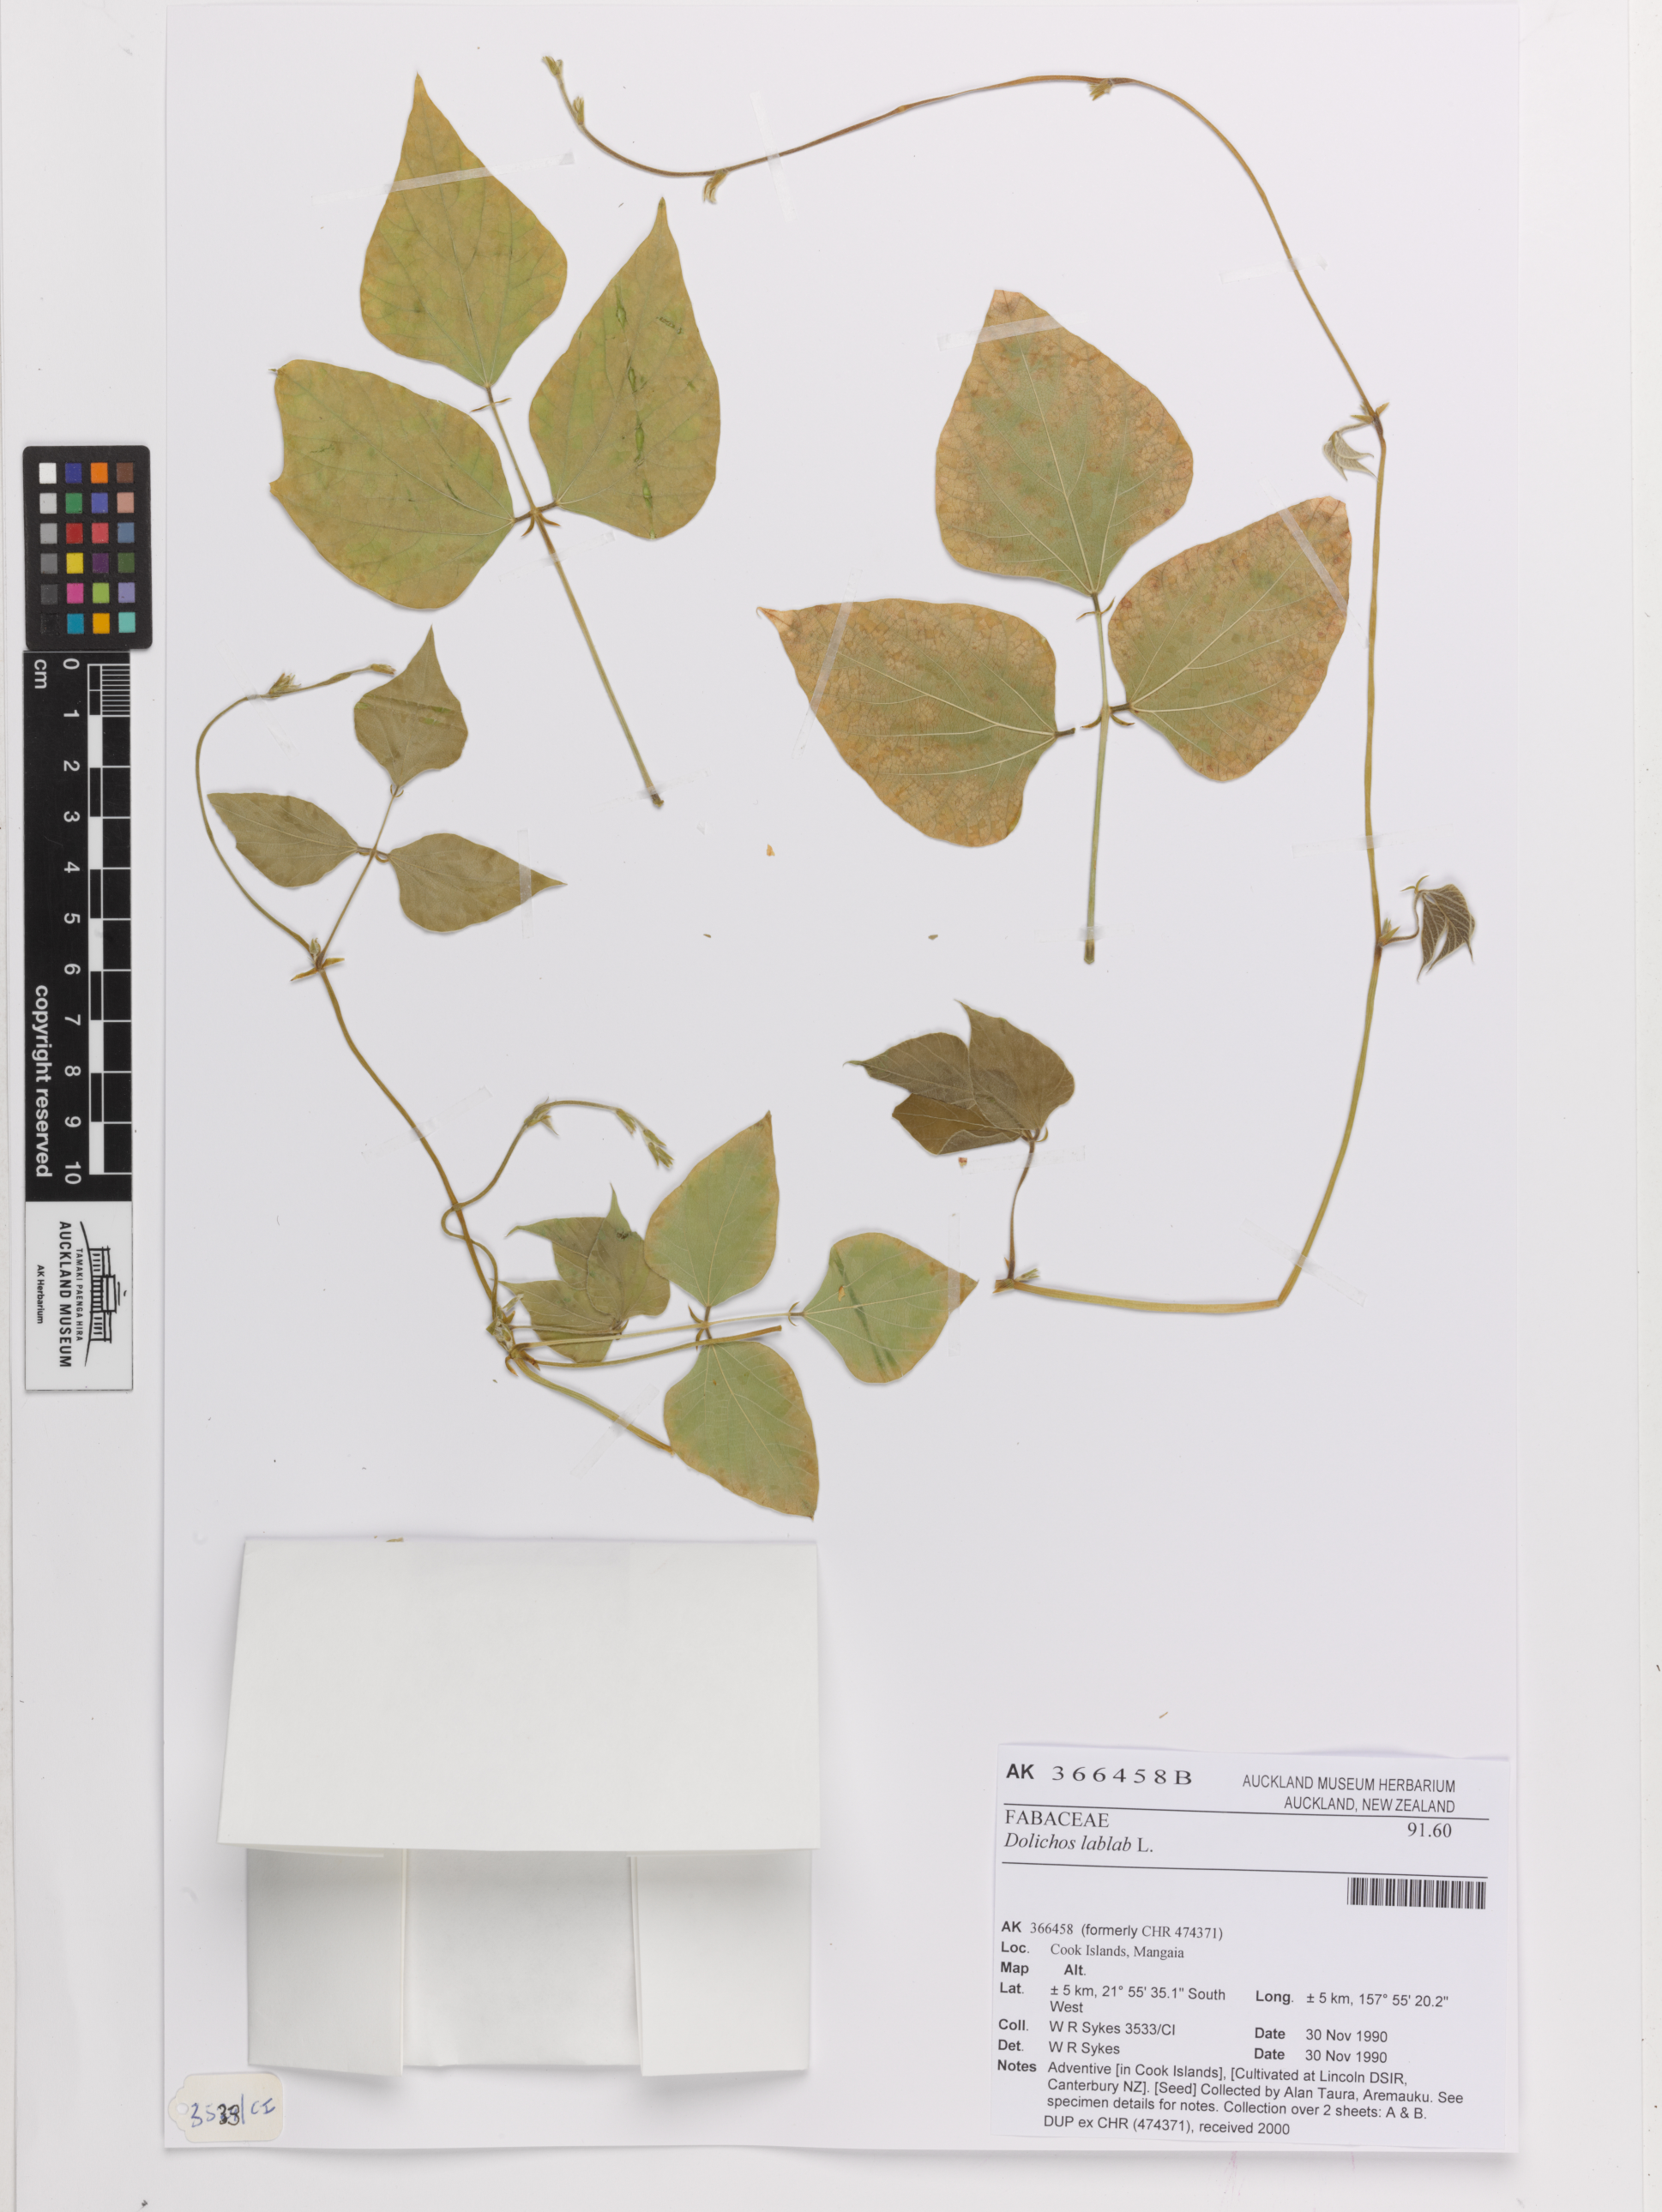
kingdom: Plantae
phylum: Tracheophyta
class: Magnoliopsida
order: Fabales
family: Fabaceae
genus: Lablab
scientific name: Lablab purpureus
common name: Lablab-bean
